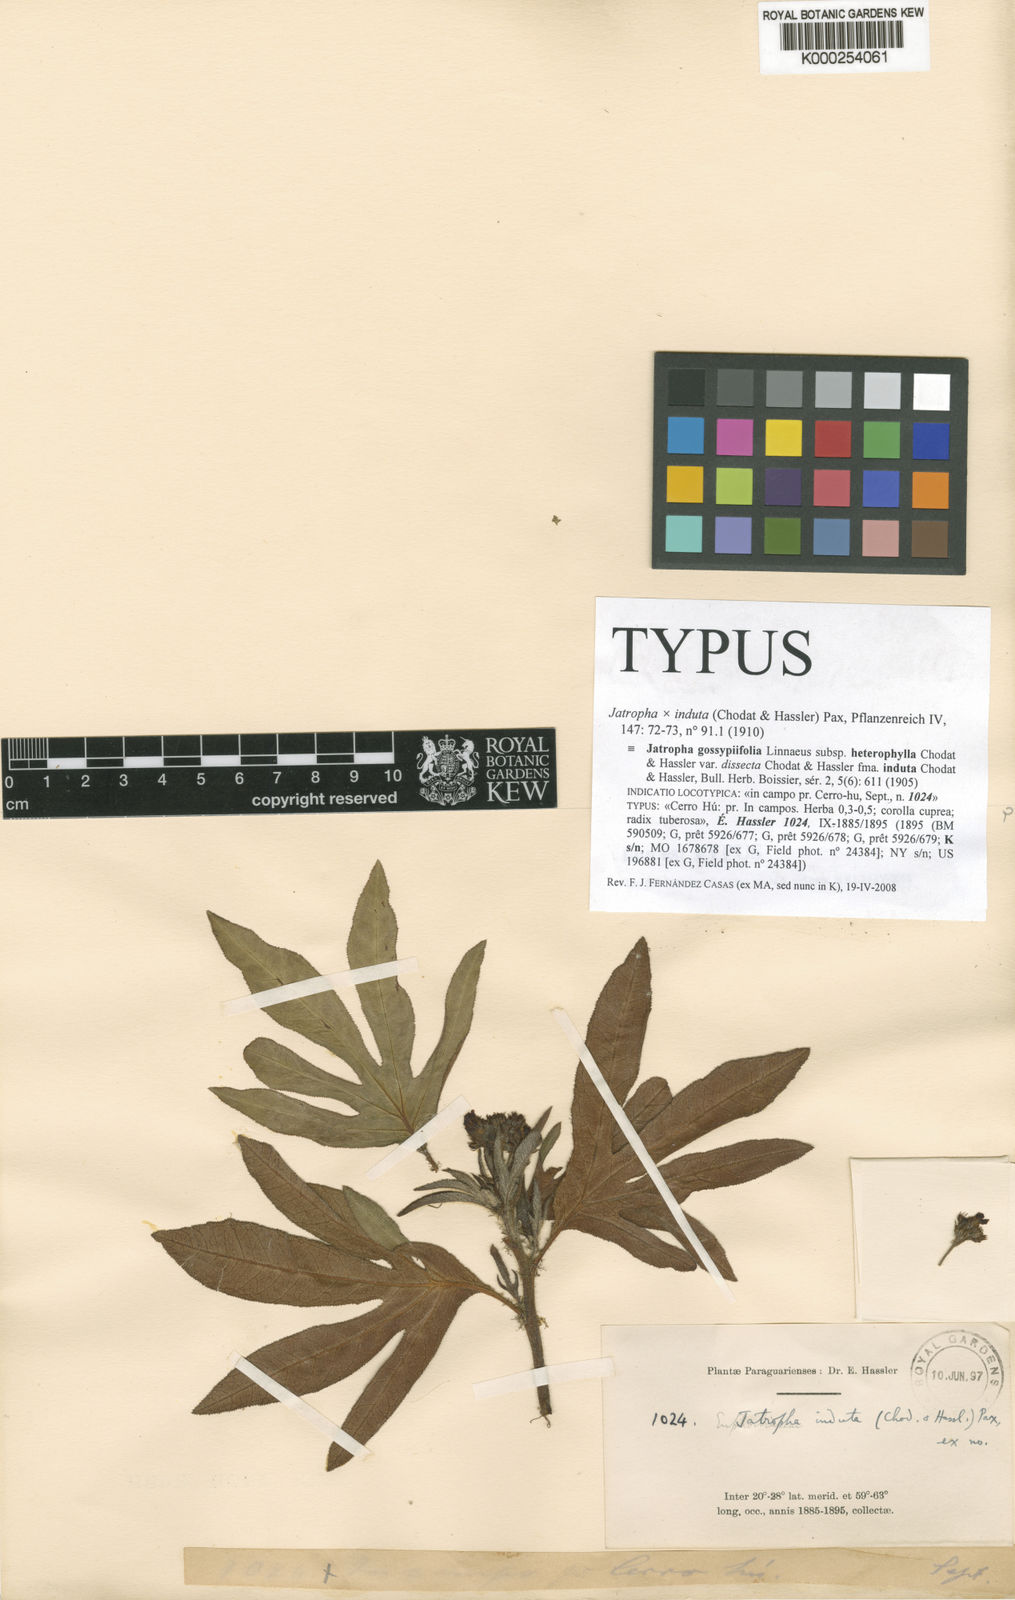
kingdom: Plantae
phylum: Tracheophyta
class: Magnoliopsida
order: Malpighiales
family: Euphorbiaceae
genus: Jatropha
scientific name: Jatropha dissecta
